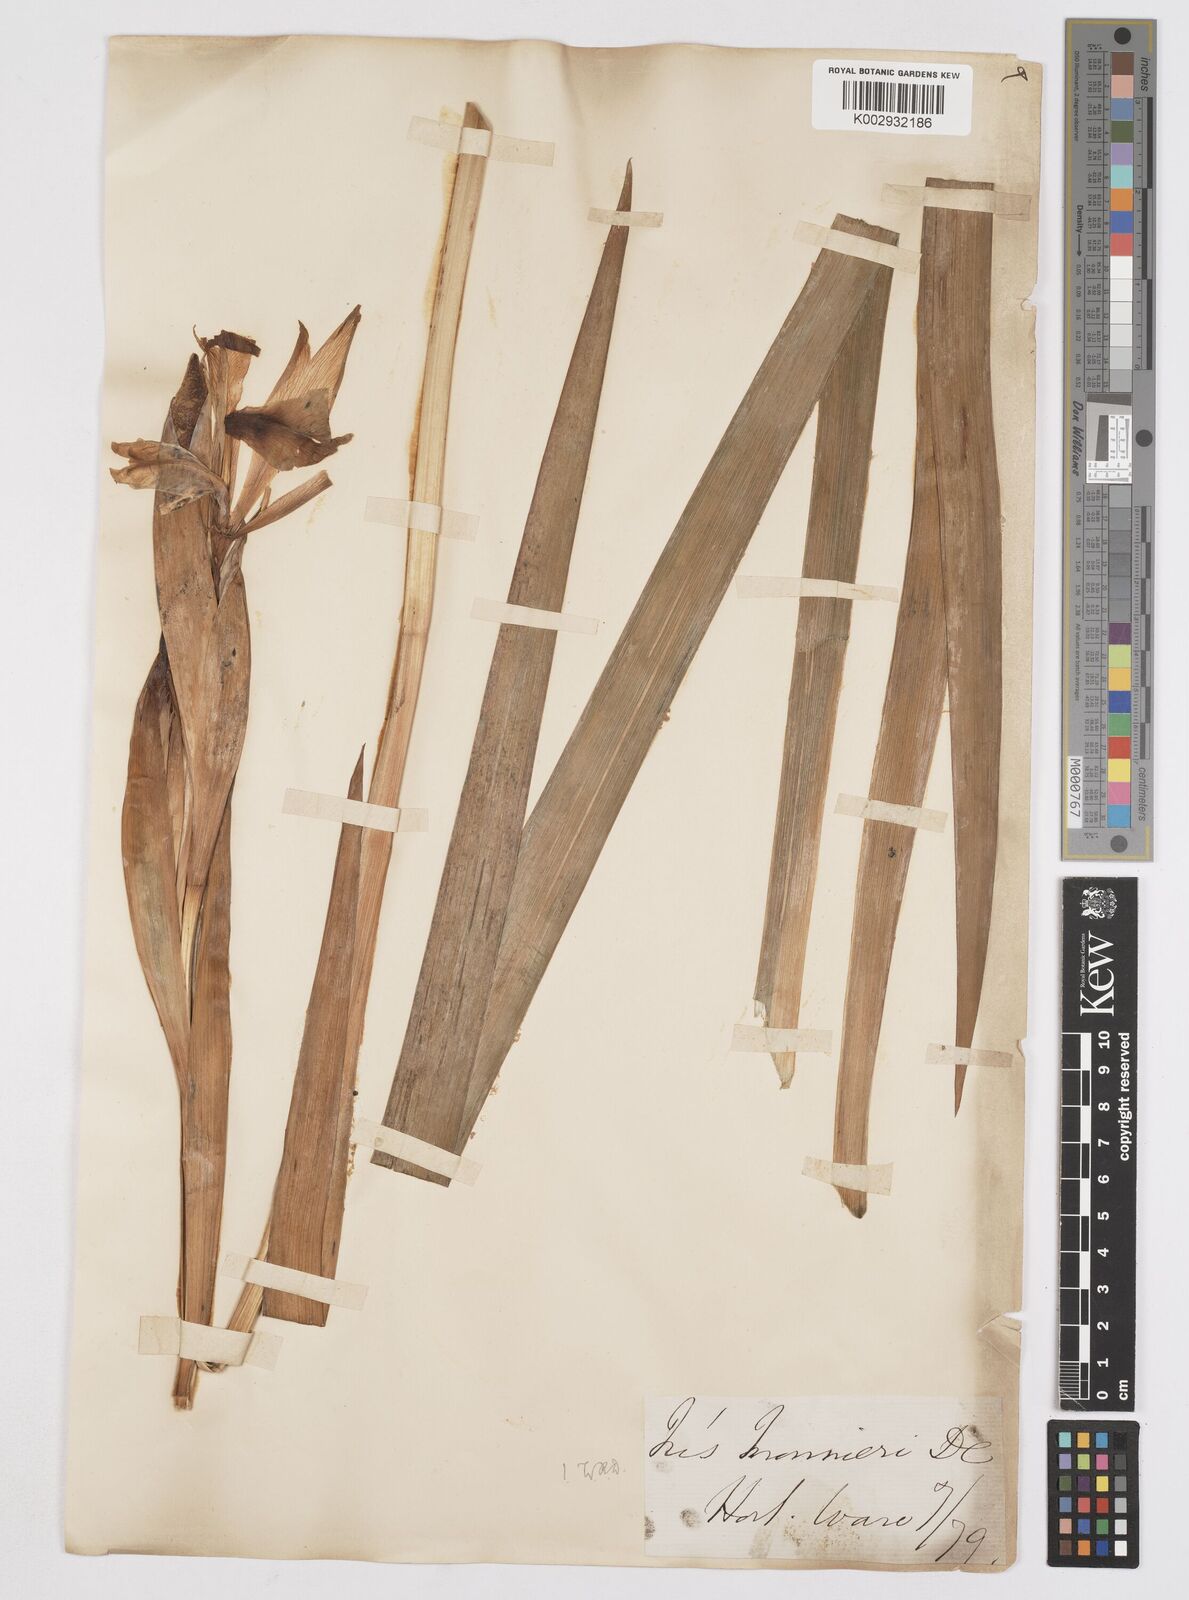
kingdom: Plantae
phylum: Tracheophyta
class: Liliopsida
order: Asparagales
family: Iridaceae
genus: Iris
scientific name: Iris orientalis
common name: Turkish iris
